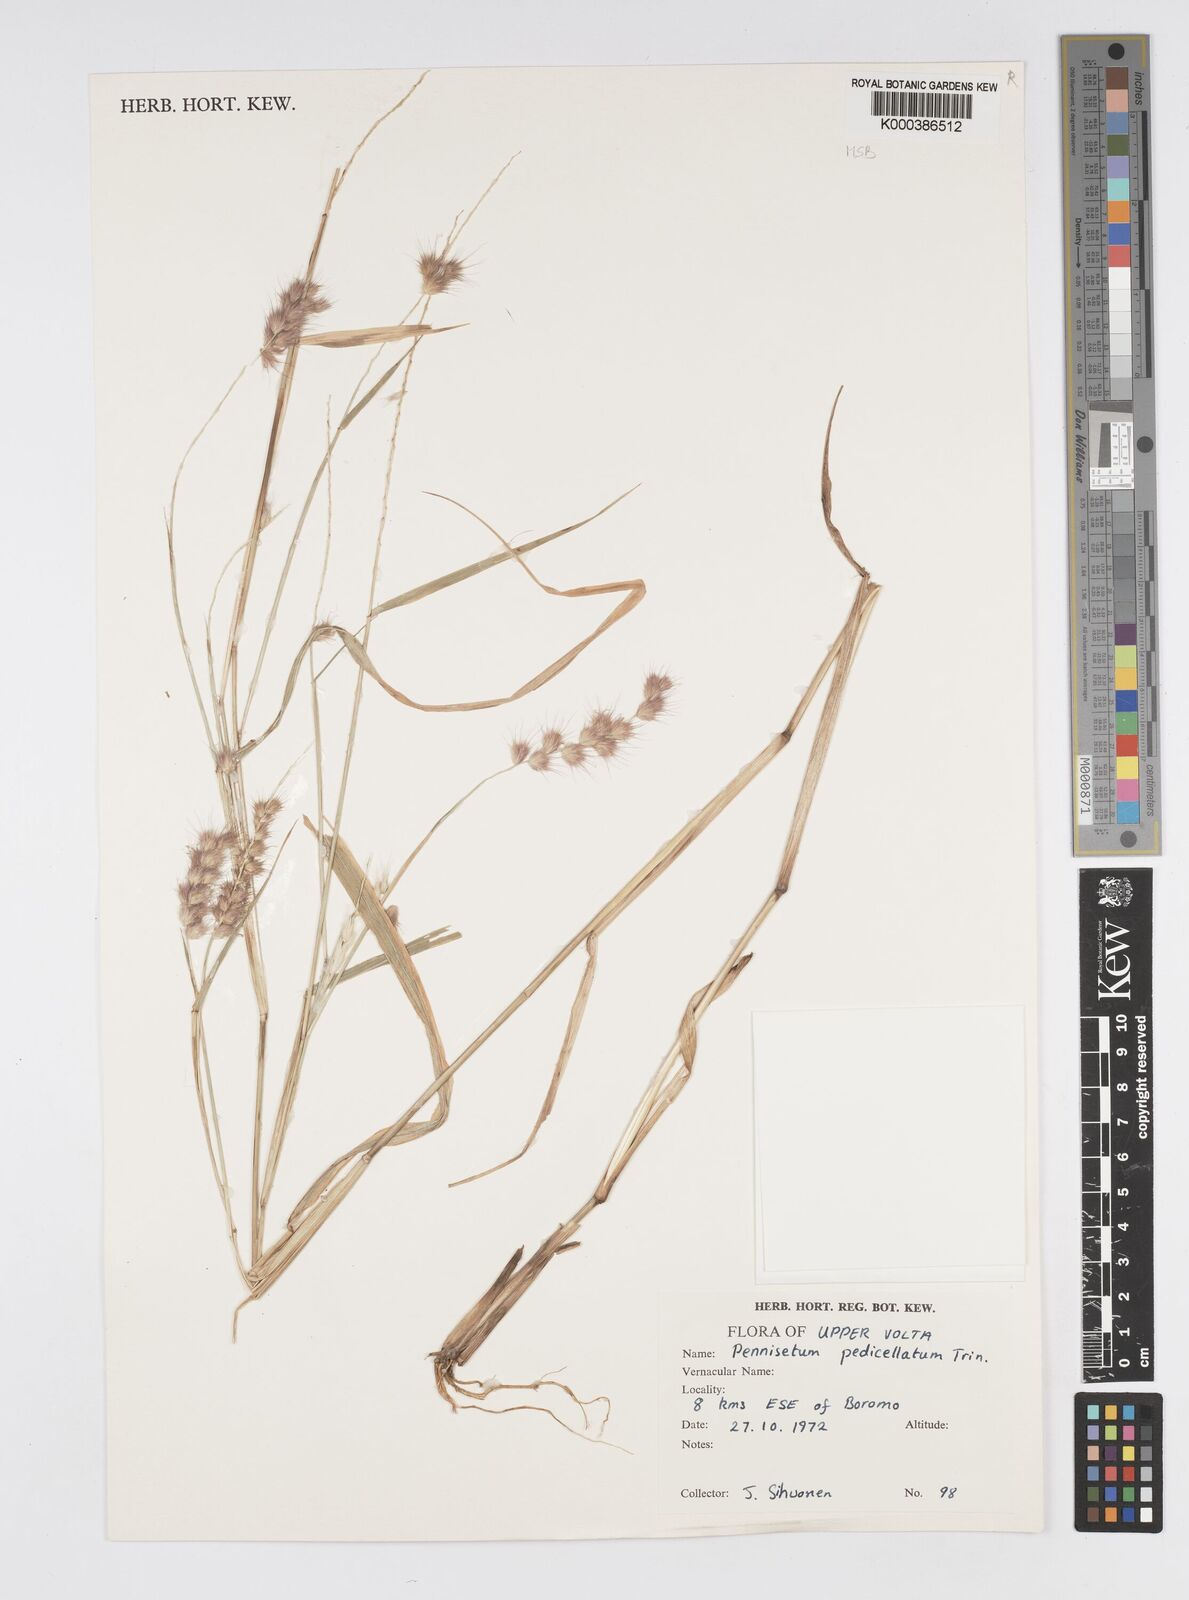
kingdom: Plantae
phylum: Tracheophyta
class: Liliopsida
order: Poales
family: Poaceae
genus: Cenchrus
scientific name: Cenchrus pedicellatus
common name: Hairy fountain grass
